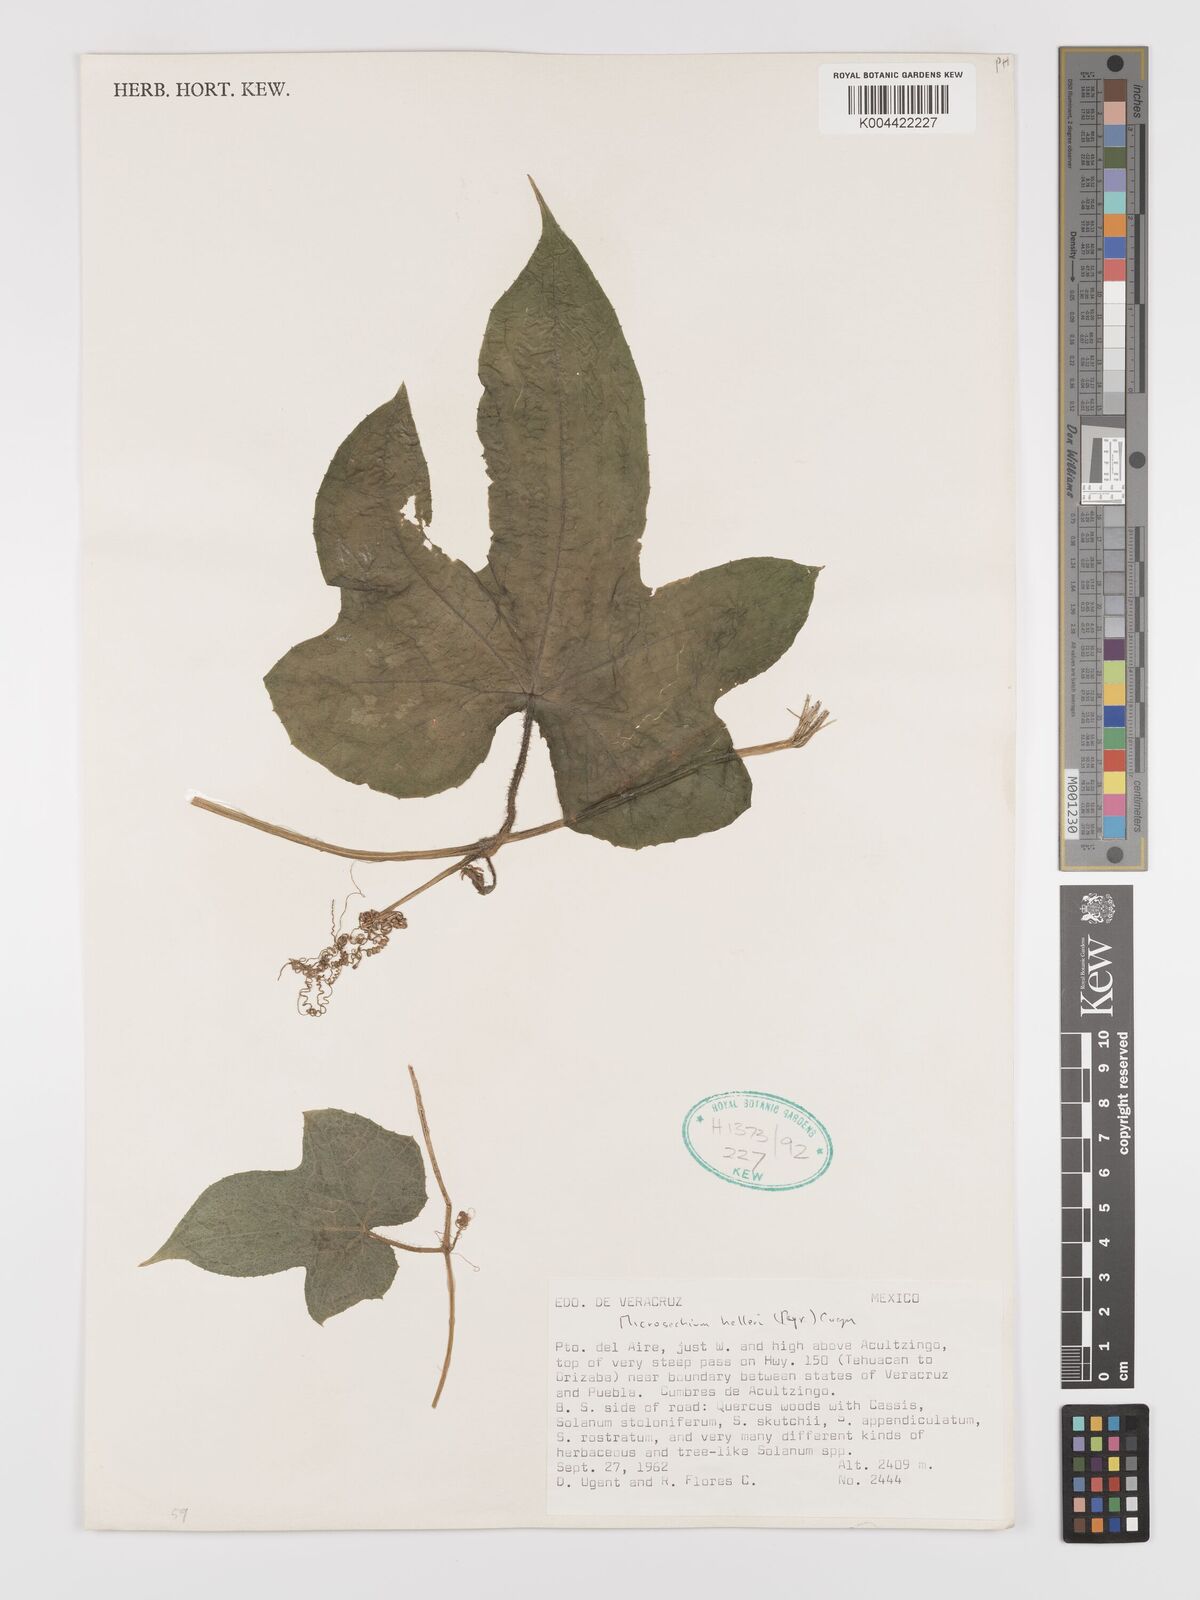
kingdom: Plantae
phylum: Tracheophyta
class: Magnoliopsida
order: Cucurbitales
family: Cucurbitaceae
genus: Microsechium
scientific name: Microsechium palmatum
